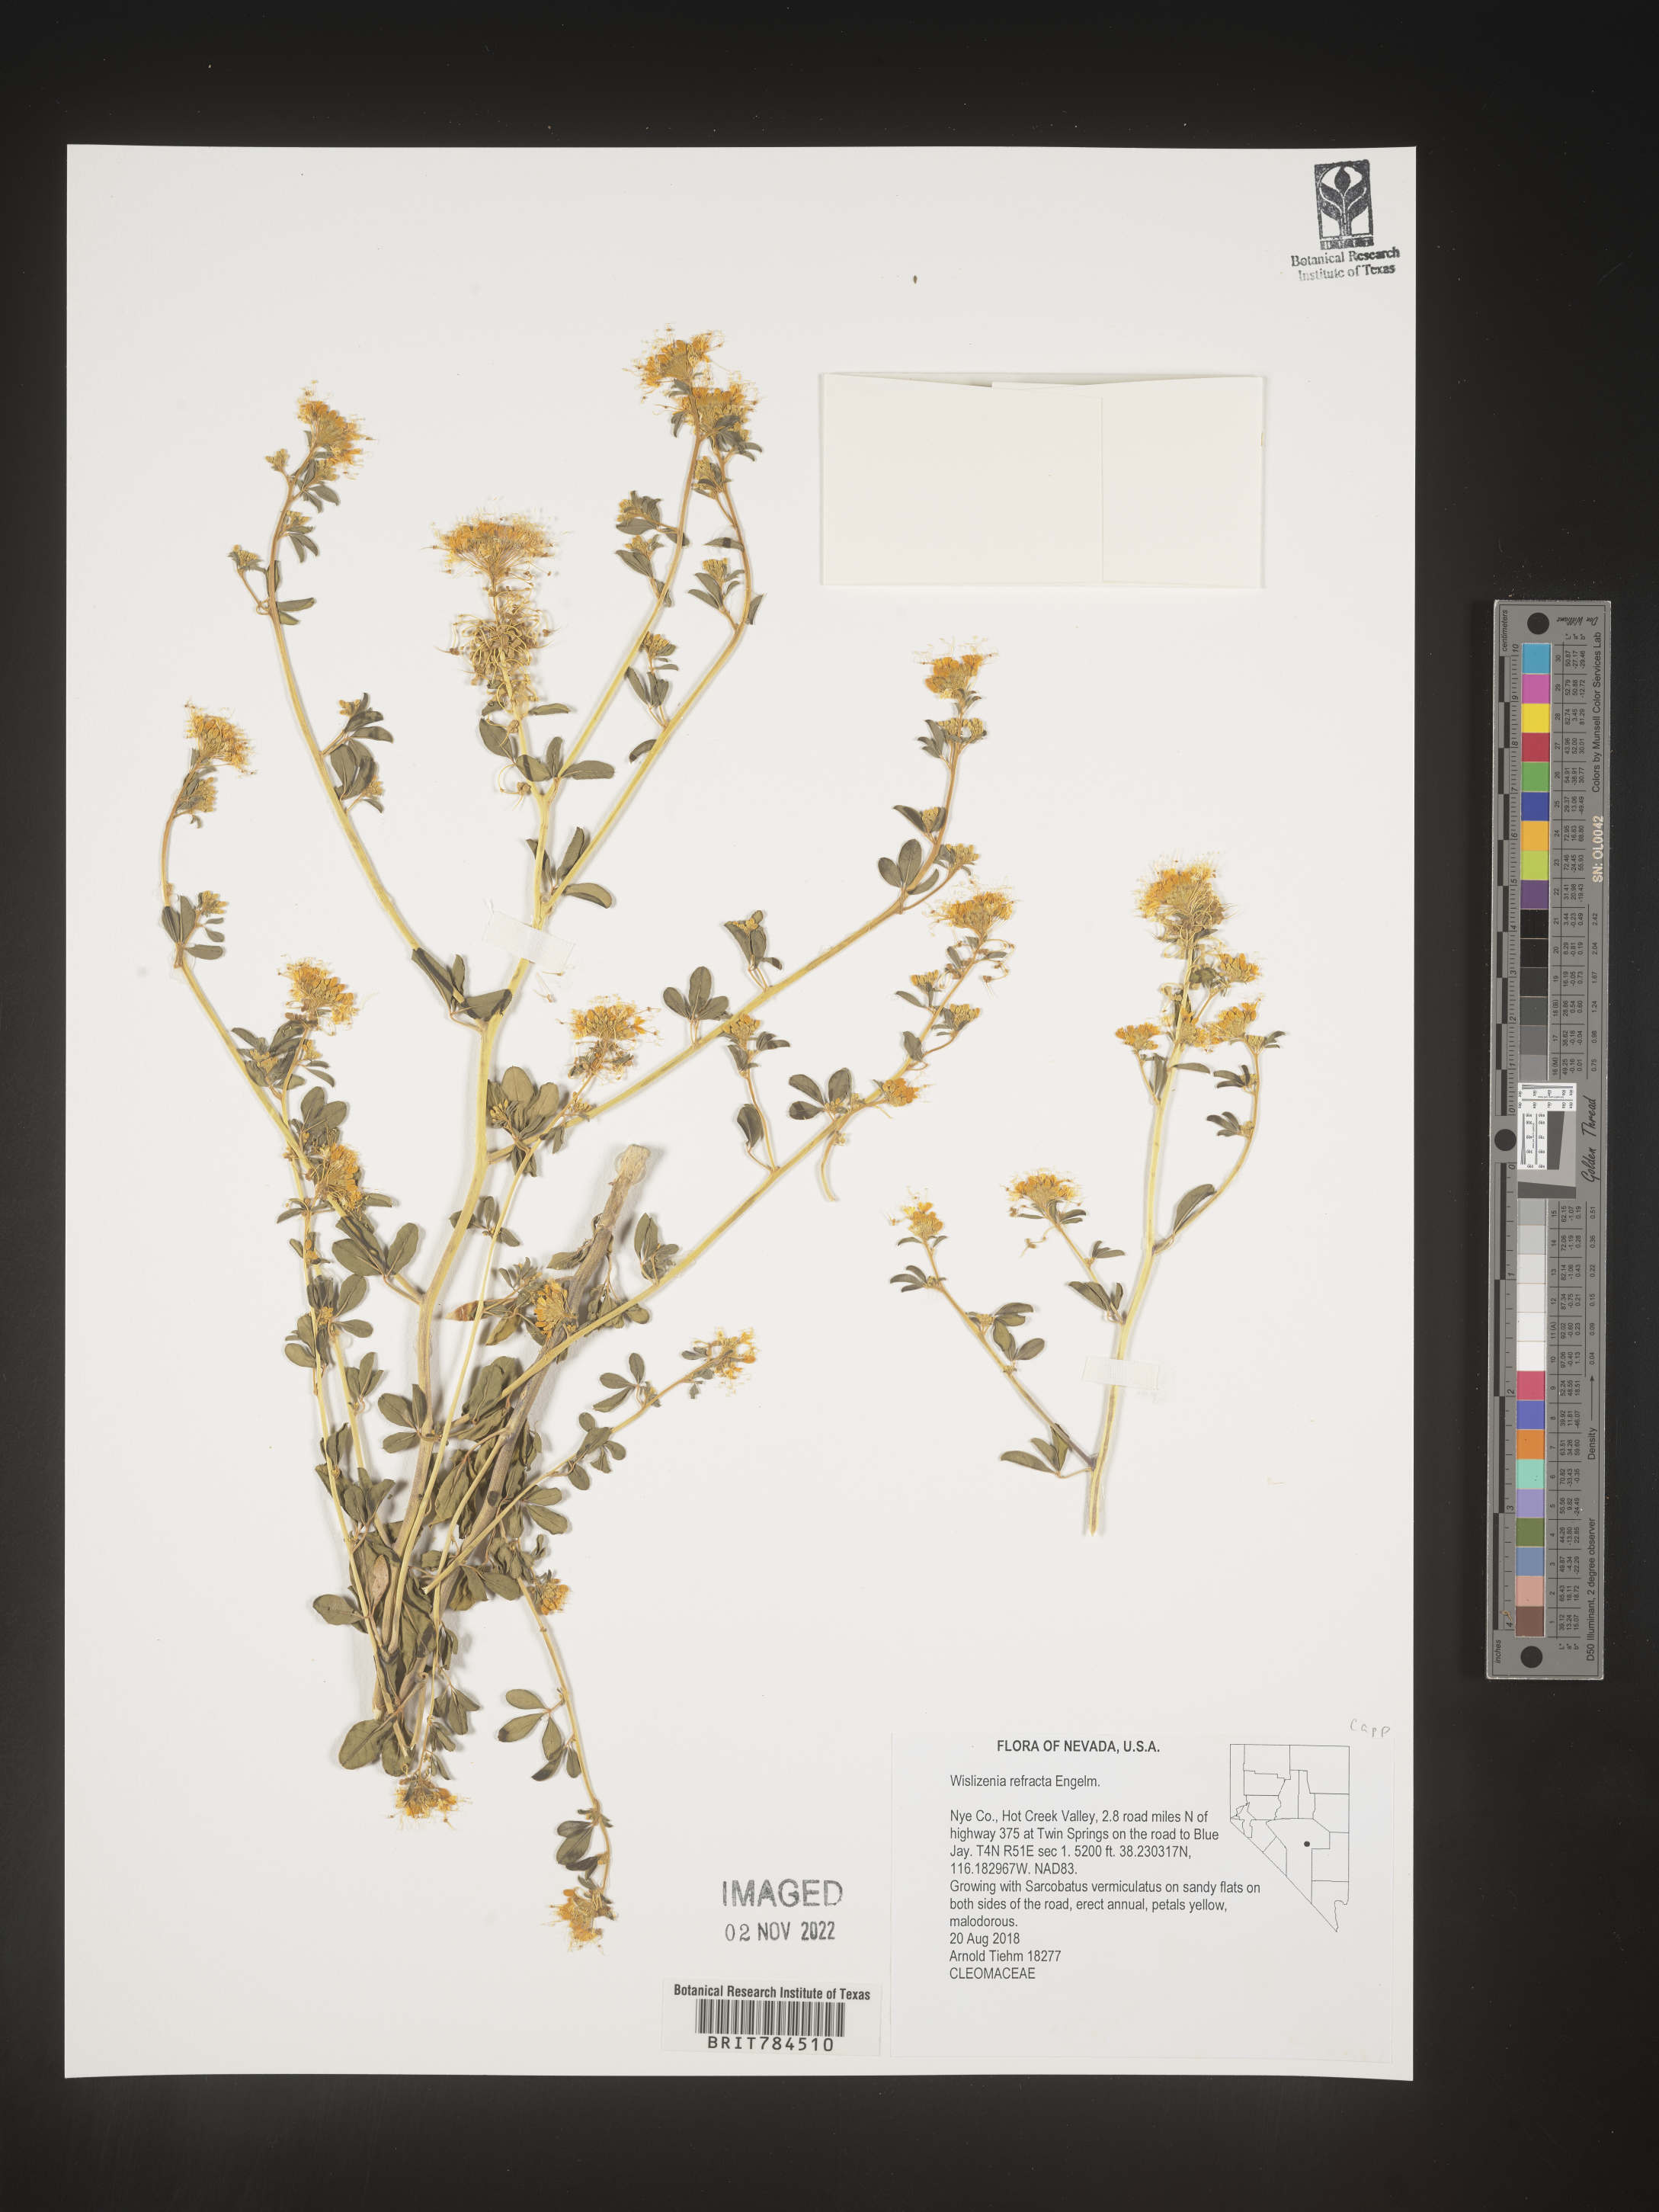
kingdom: Plantae
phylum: Tracheophyta
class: Magnoliopsida
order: Brassicales
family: Cleomaceae
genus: Cleomella
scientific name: Cleomella refracta
